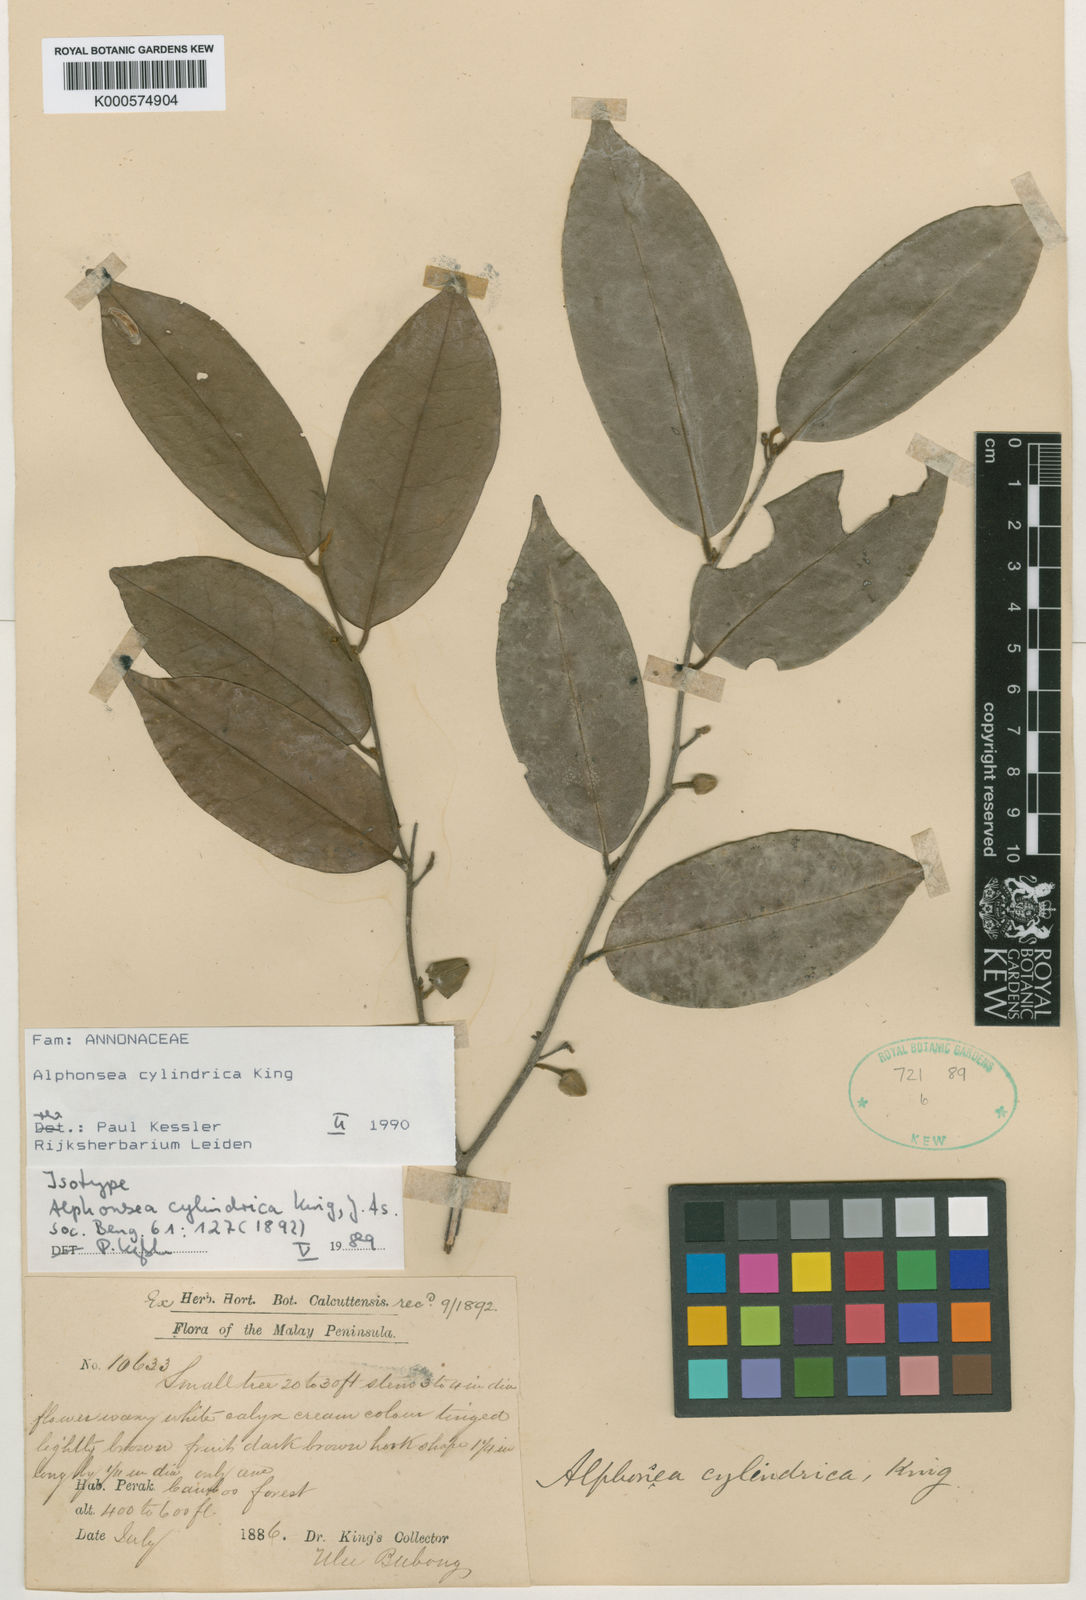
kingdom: Plantae
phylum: Tracheophyta
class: Magnoliopsida
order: Magnoliales
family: Annonaceae
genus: Alphonsea
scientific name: Alphonsea cylindrica
